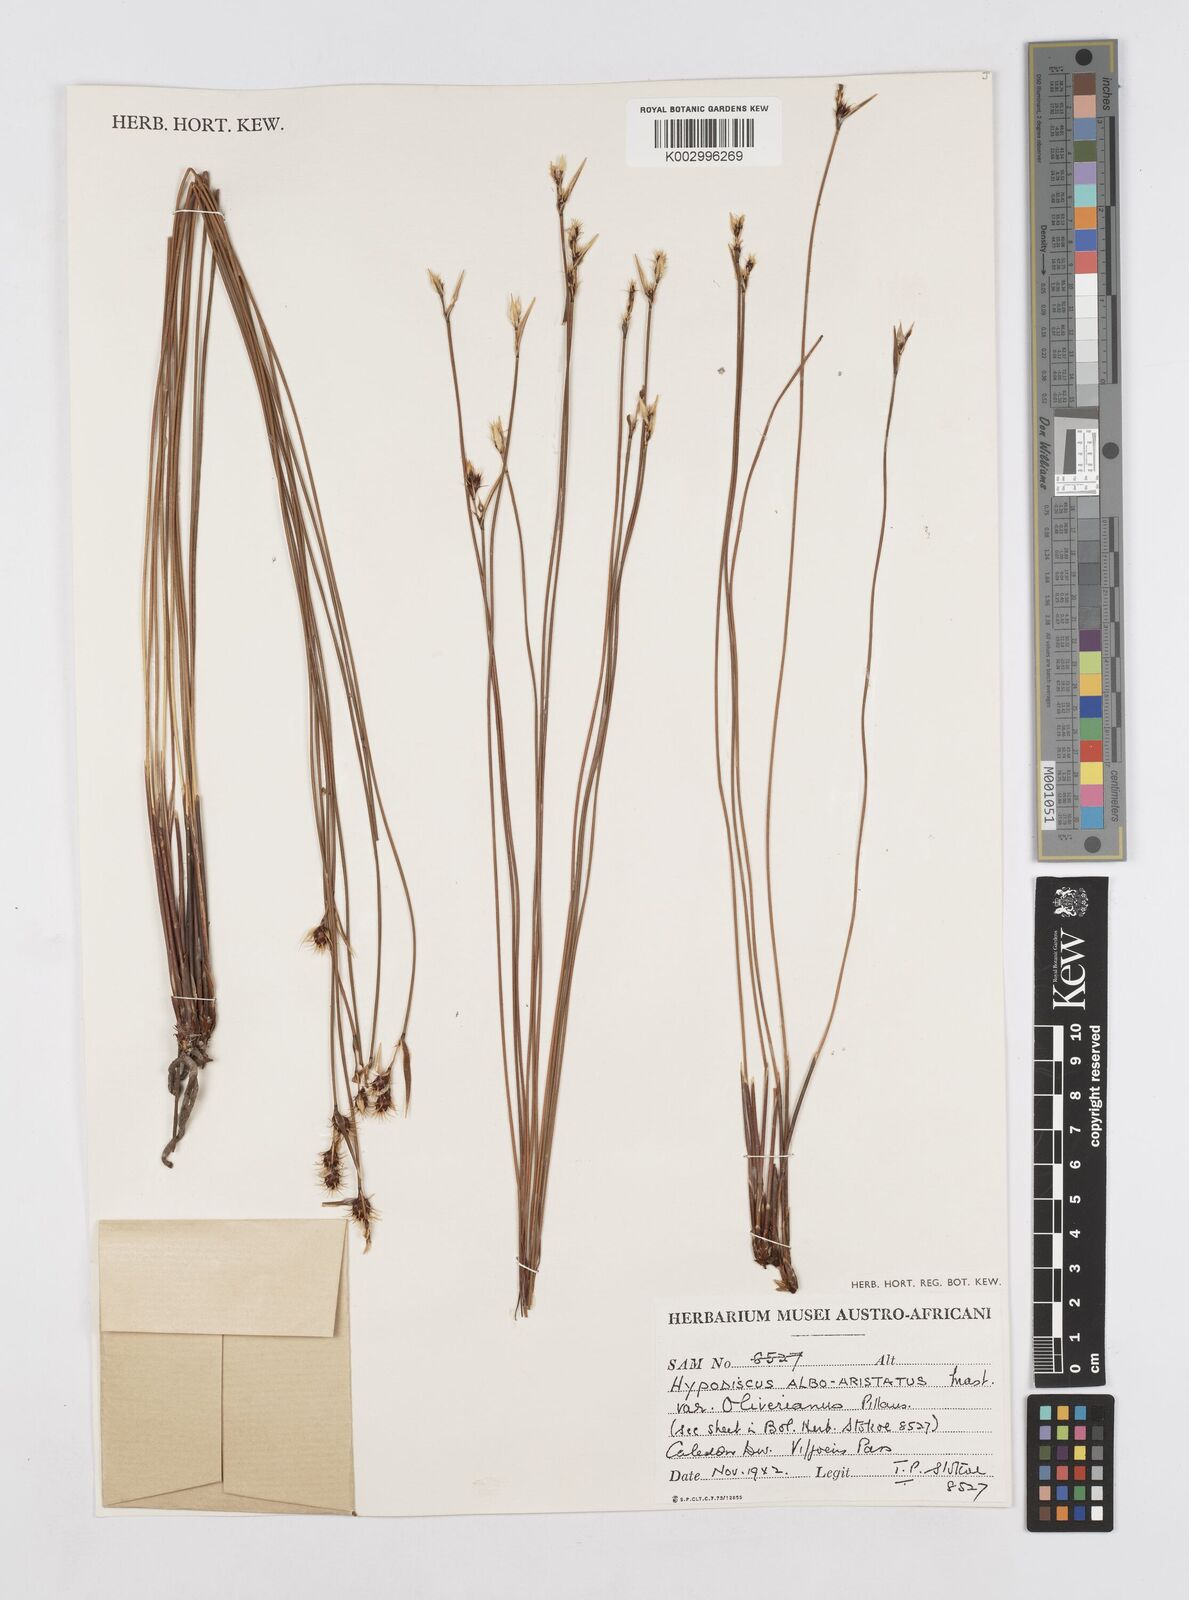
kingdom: Plantae
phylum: Tracheophyta
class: Liliopsida
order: Poales
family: Restionaceae
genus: Hypodiscus
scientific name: Hypodiscus alboaristatus
